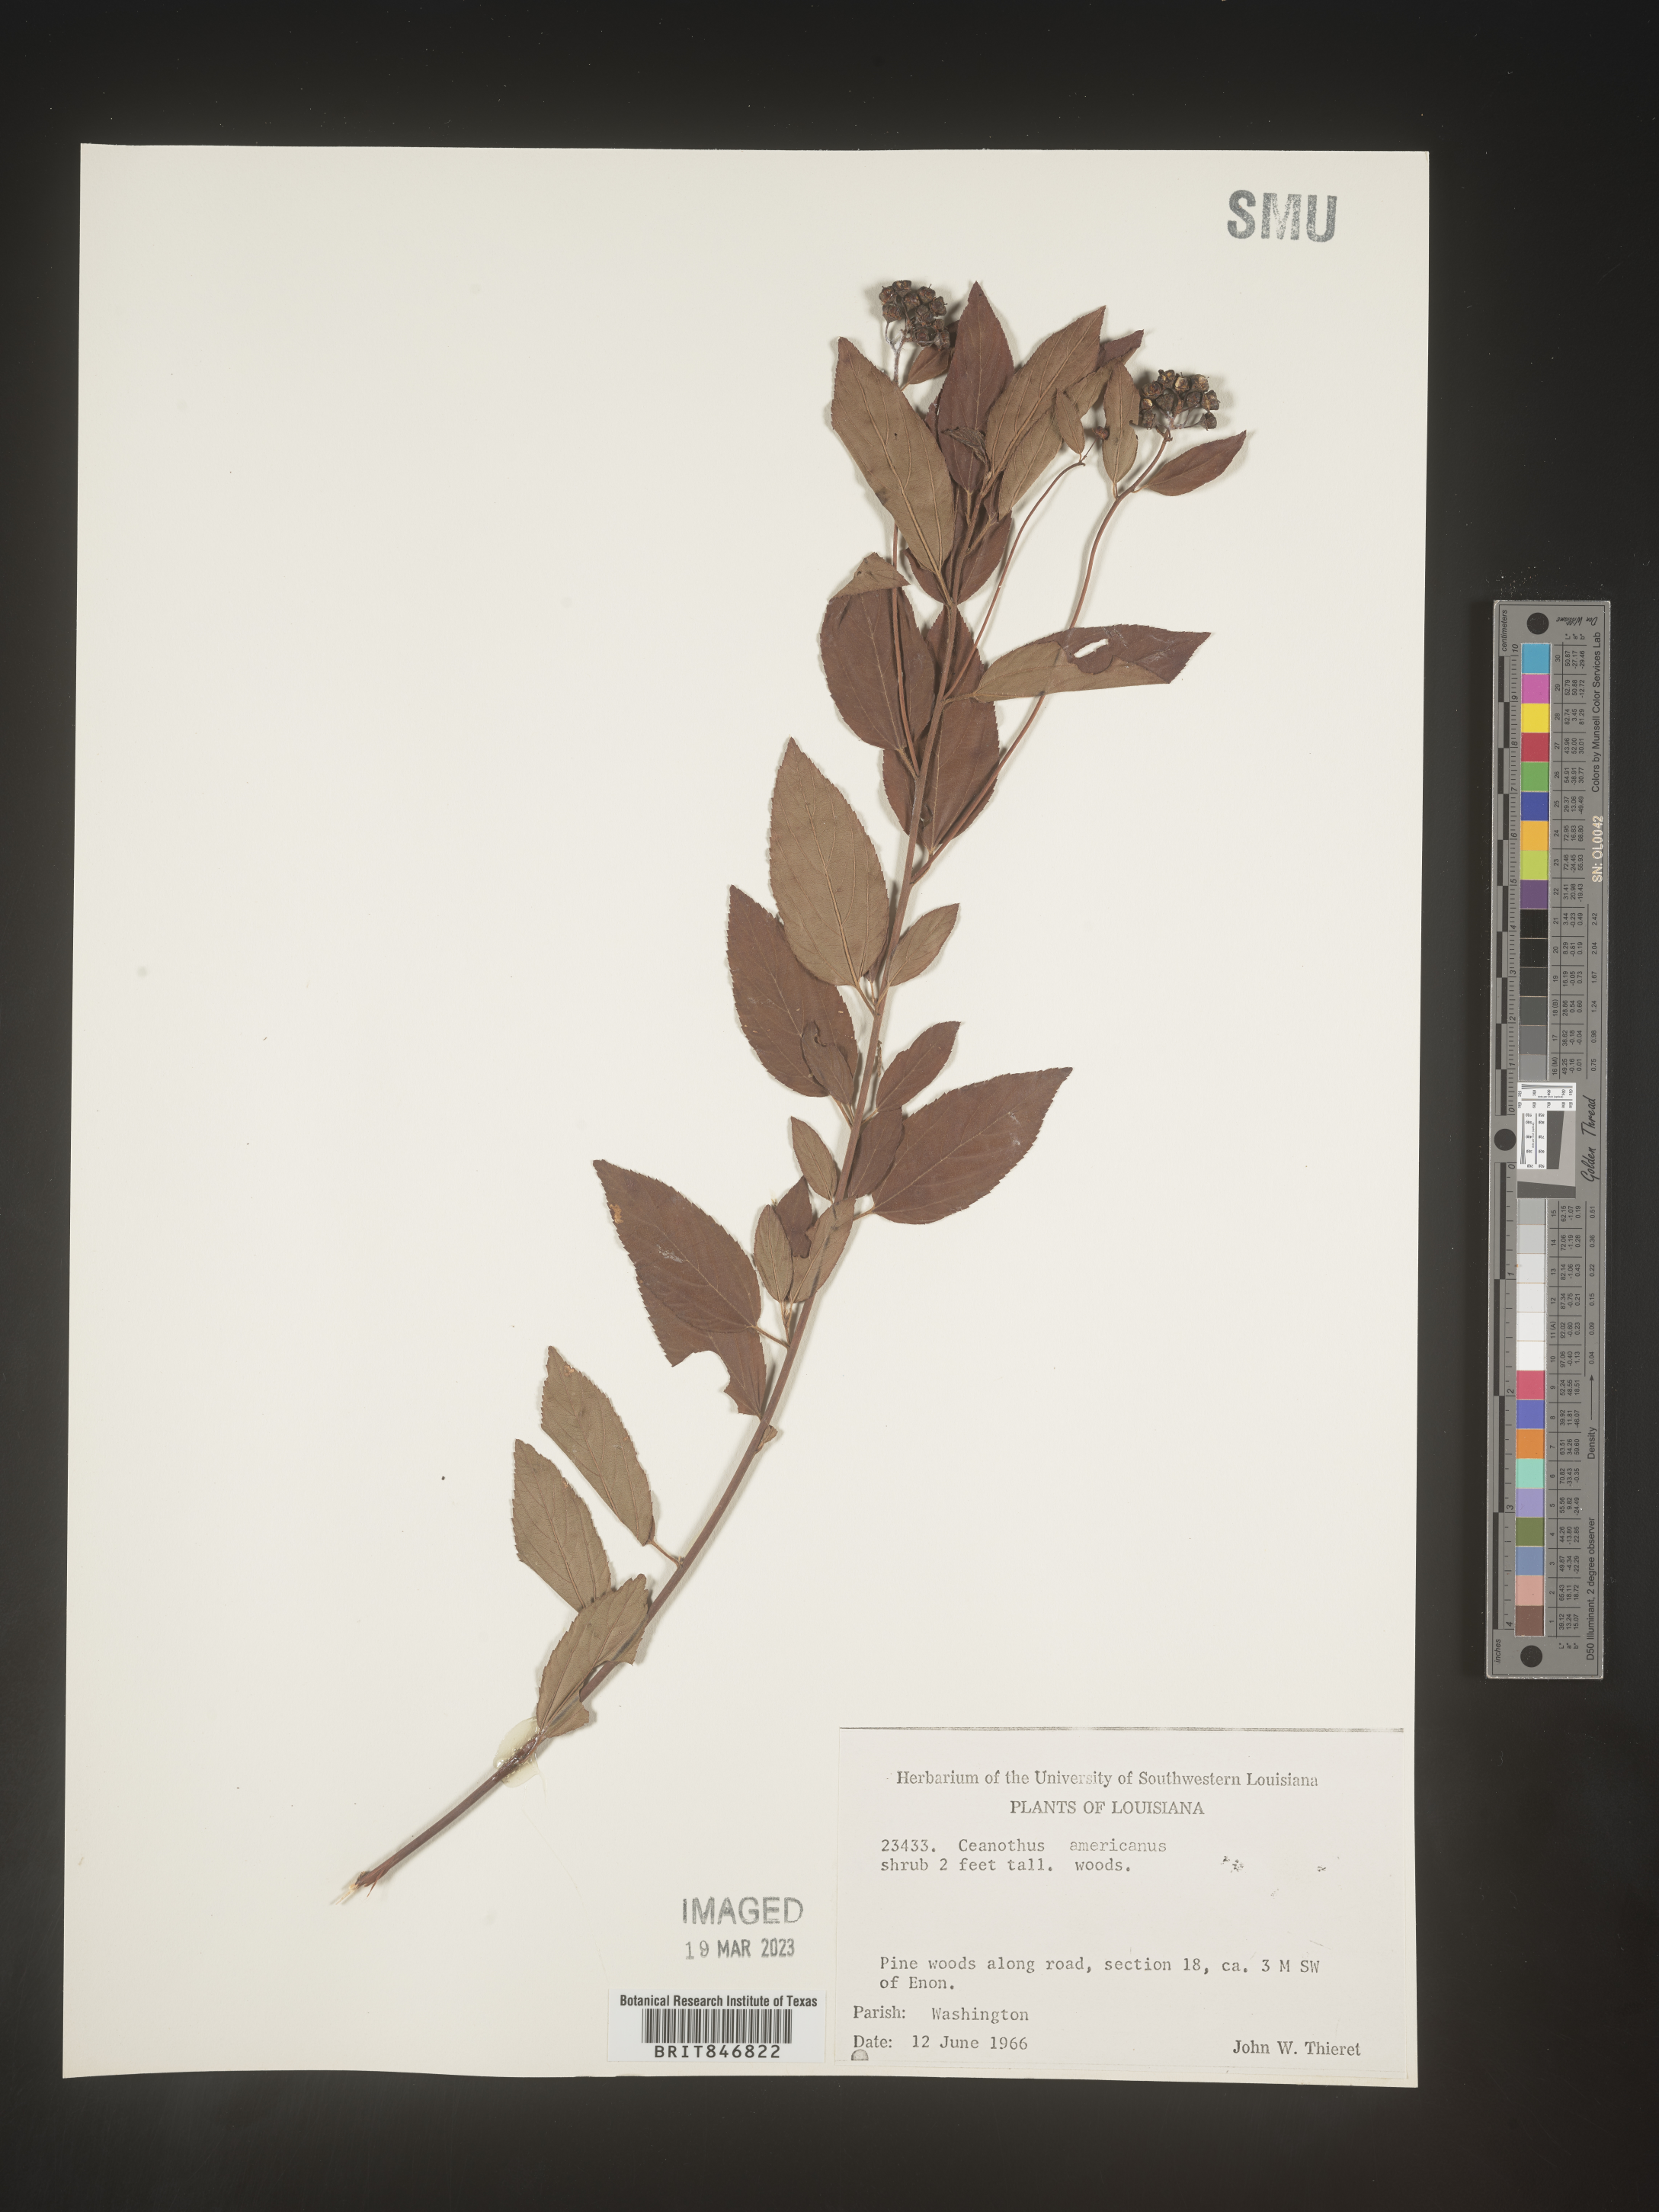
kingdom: Plantae
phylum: Tracheophyta
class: Magnoliopsida
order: Rosales
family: Rhamnaceae
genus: Ceanothus
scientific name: Ceanothus americanus
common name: Redroot
